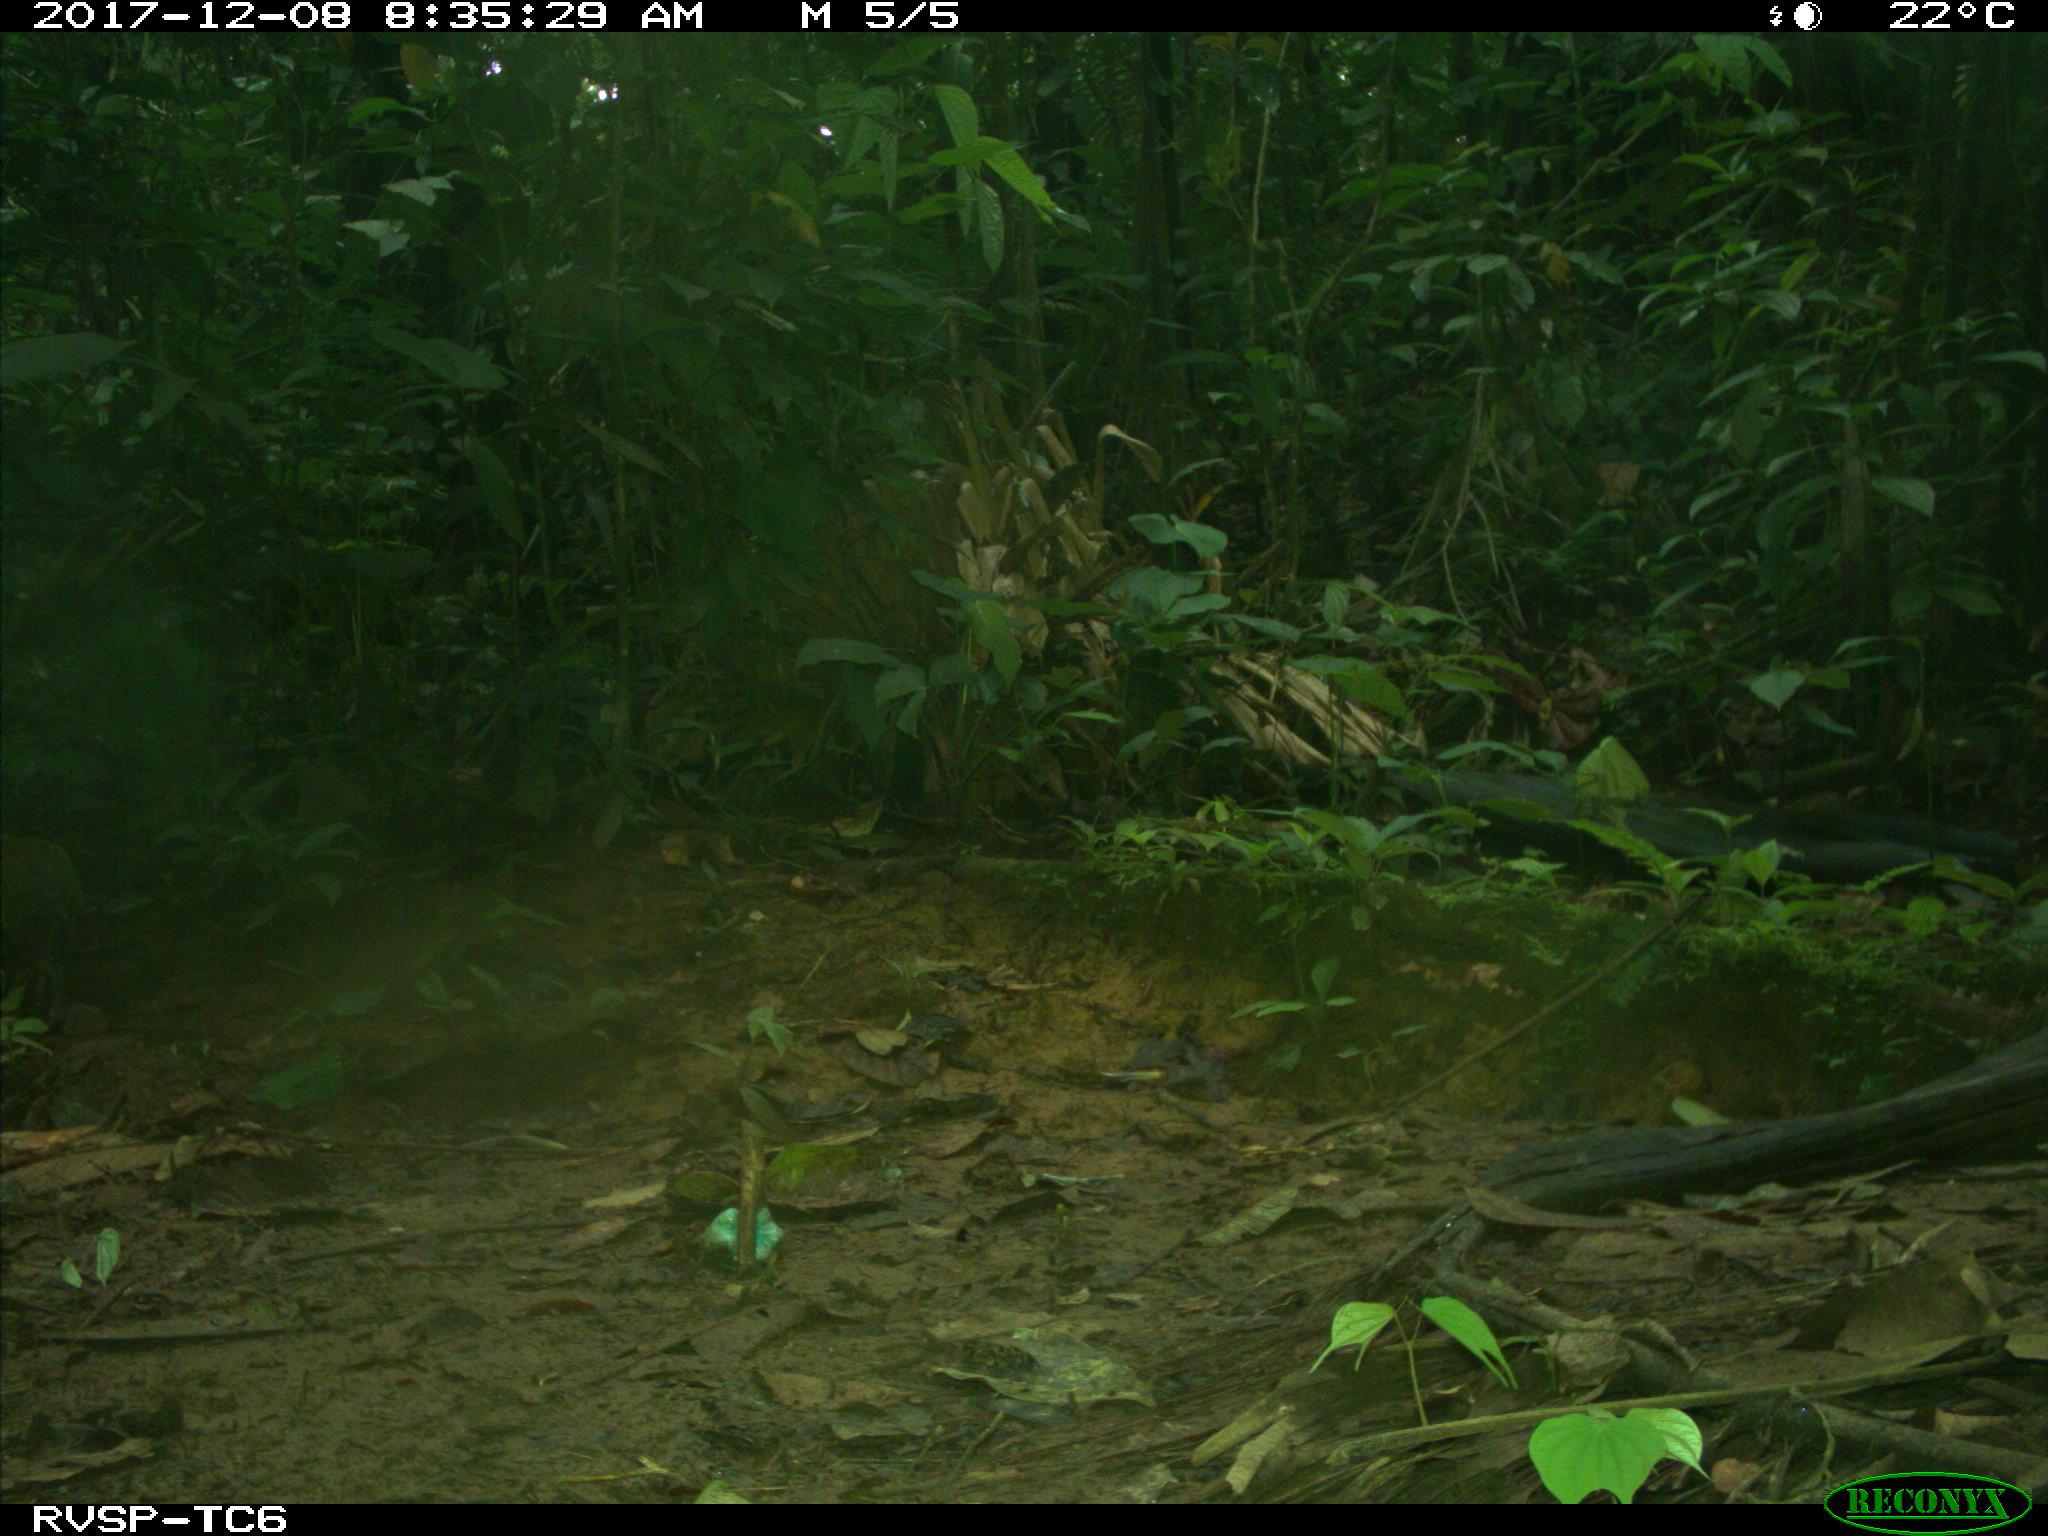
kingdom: Animalia
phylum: Chordata
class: Mammalia
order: Rodentia
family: Dasyproctidae
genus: Dasyprocta
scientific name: Dasyprocta punctata
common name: Central american agouti
